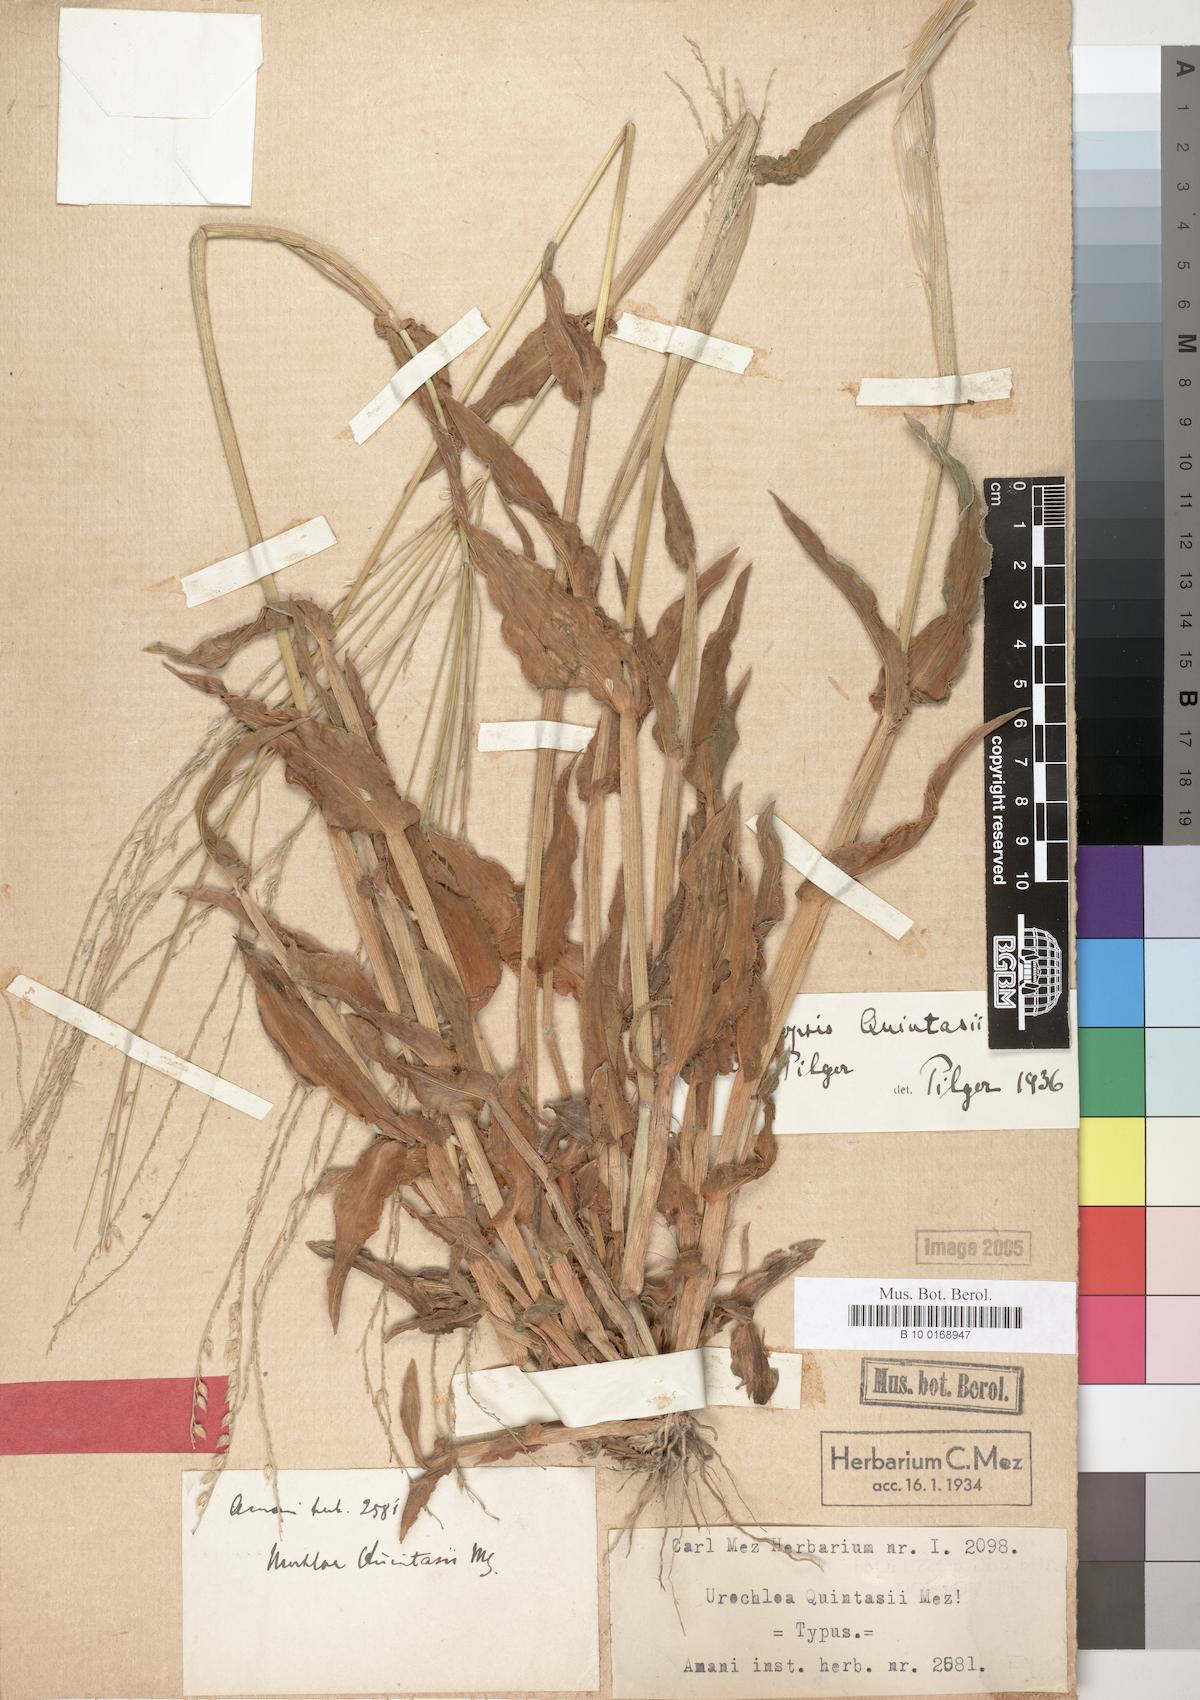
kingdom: Plantae
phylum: Tracheophyta
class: Liliopsida
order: Poales
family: Poaceae
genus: Alloteropsis
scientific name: Alloteropsis cimicina
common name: Summergrass
